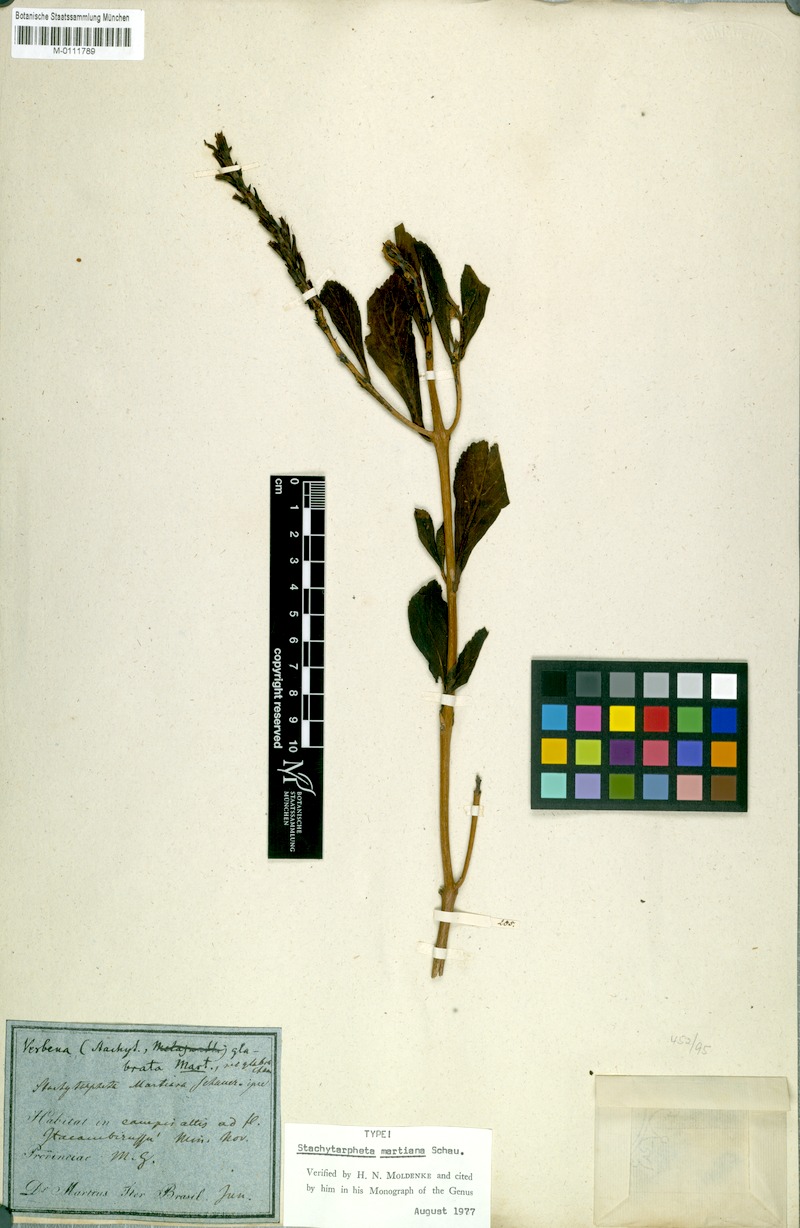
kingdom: Plantae
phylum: Tracheophyta
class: Magnoliopsida
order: Lamiales
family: Verbenaceae
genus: Stachytarpheta
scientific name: Stachytarpheta martiana
